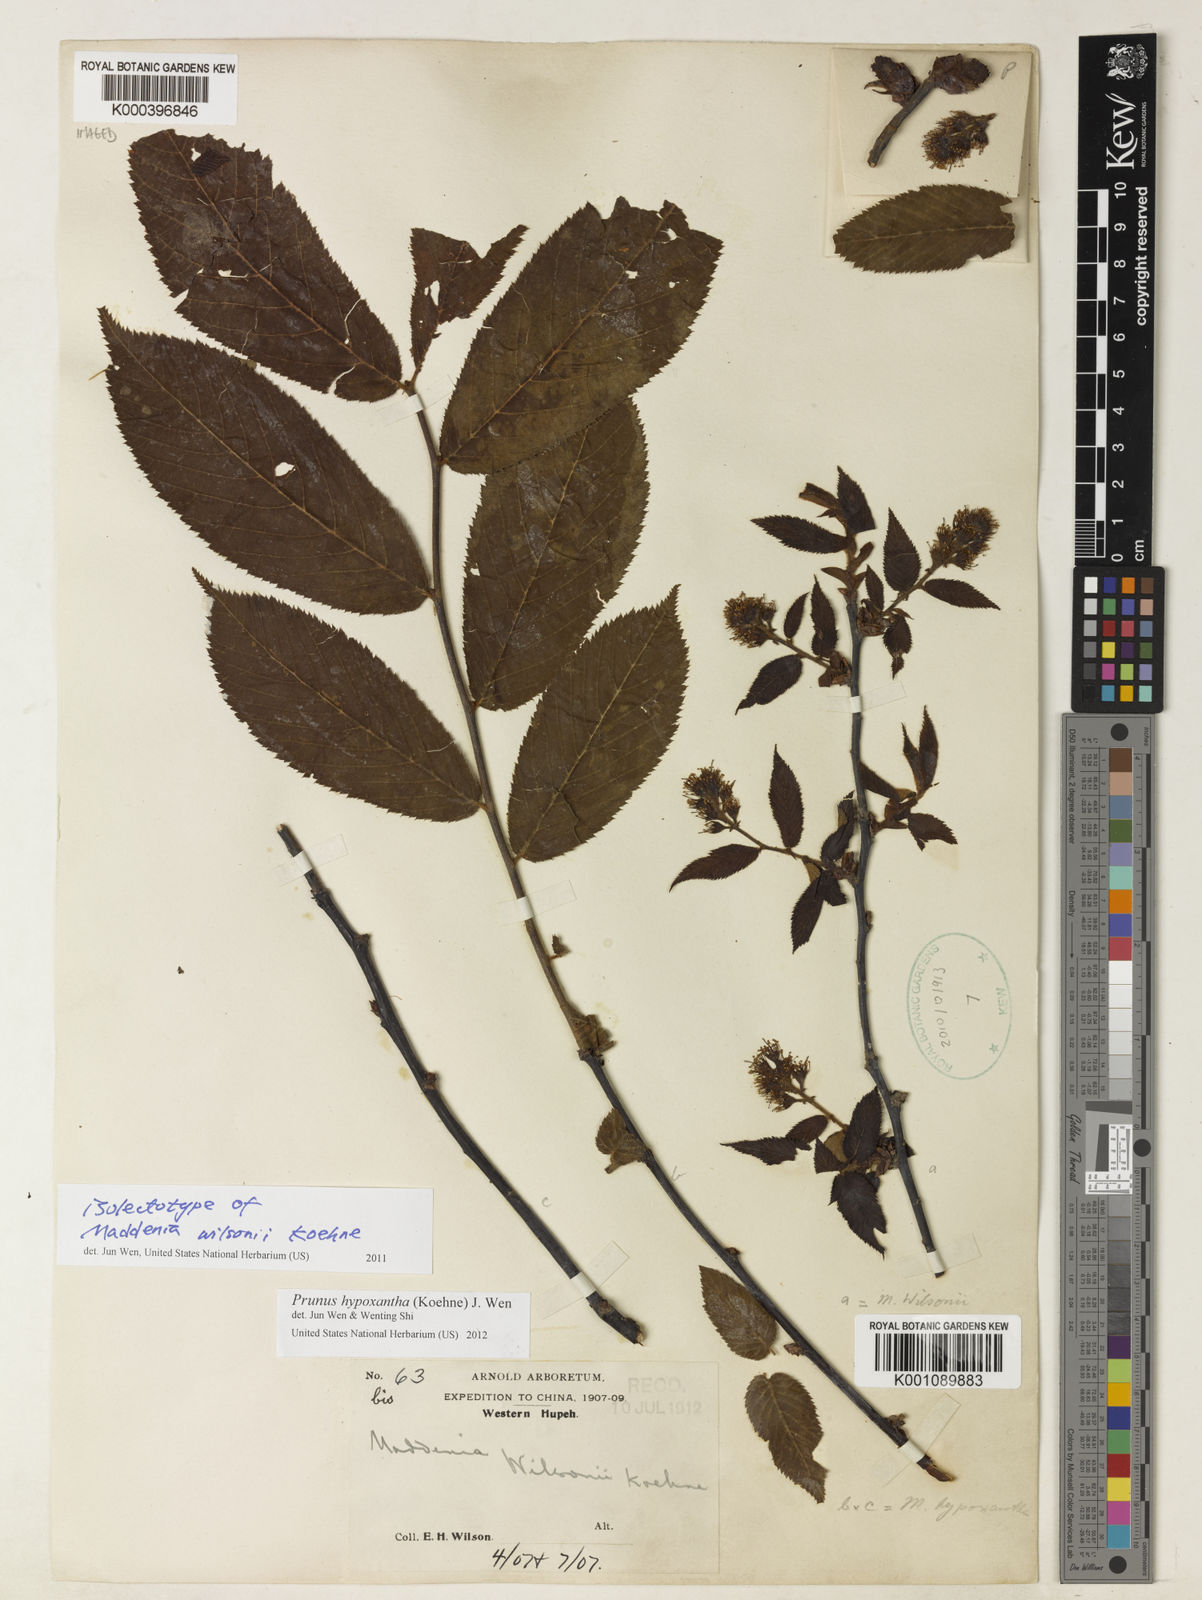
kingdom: Plantae
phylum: Tracheophyta
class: Magnoliopsida
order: Rosales
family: Rosaceae
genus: Prunus
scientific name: Prunus hypoxantha
